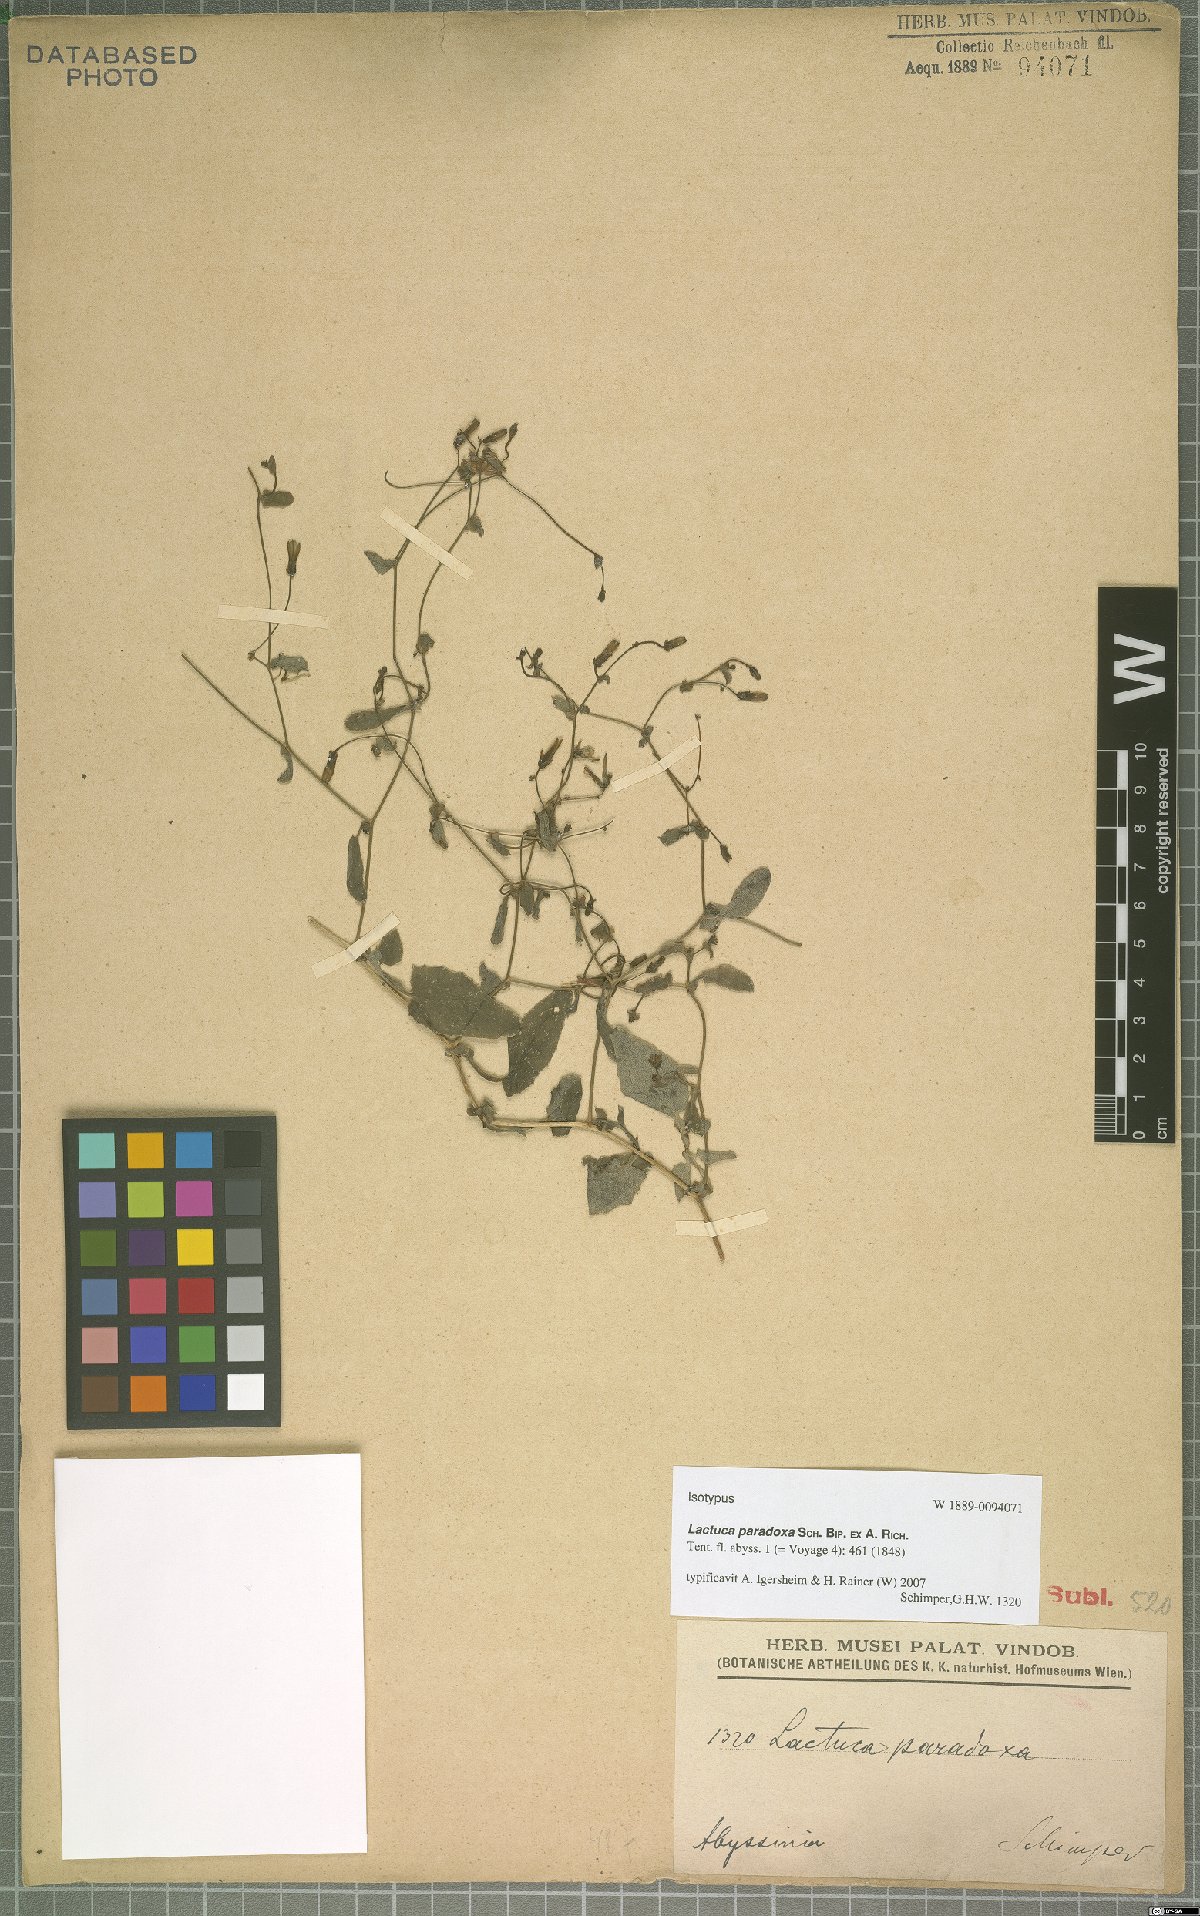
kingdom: Plantae
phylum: Tracheophyta
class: Magnoliopsida
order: Asterales
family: Asteraceae
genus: Lactuca
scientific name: Lactuca paradoxa
